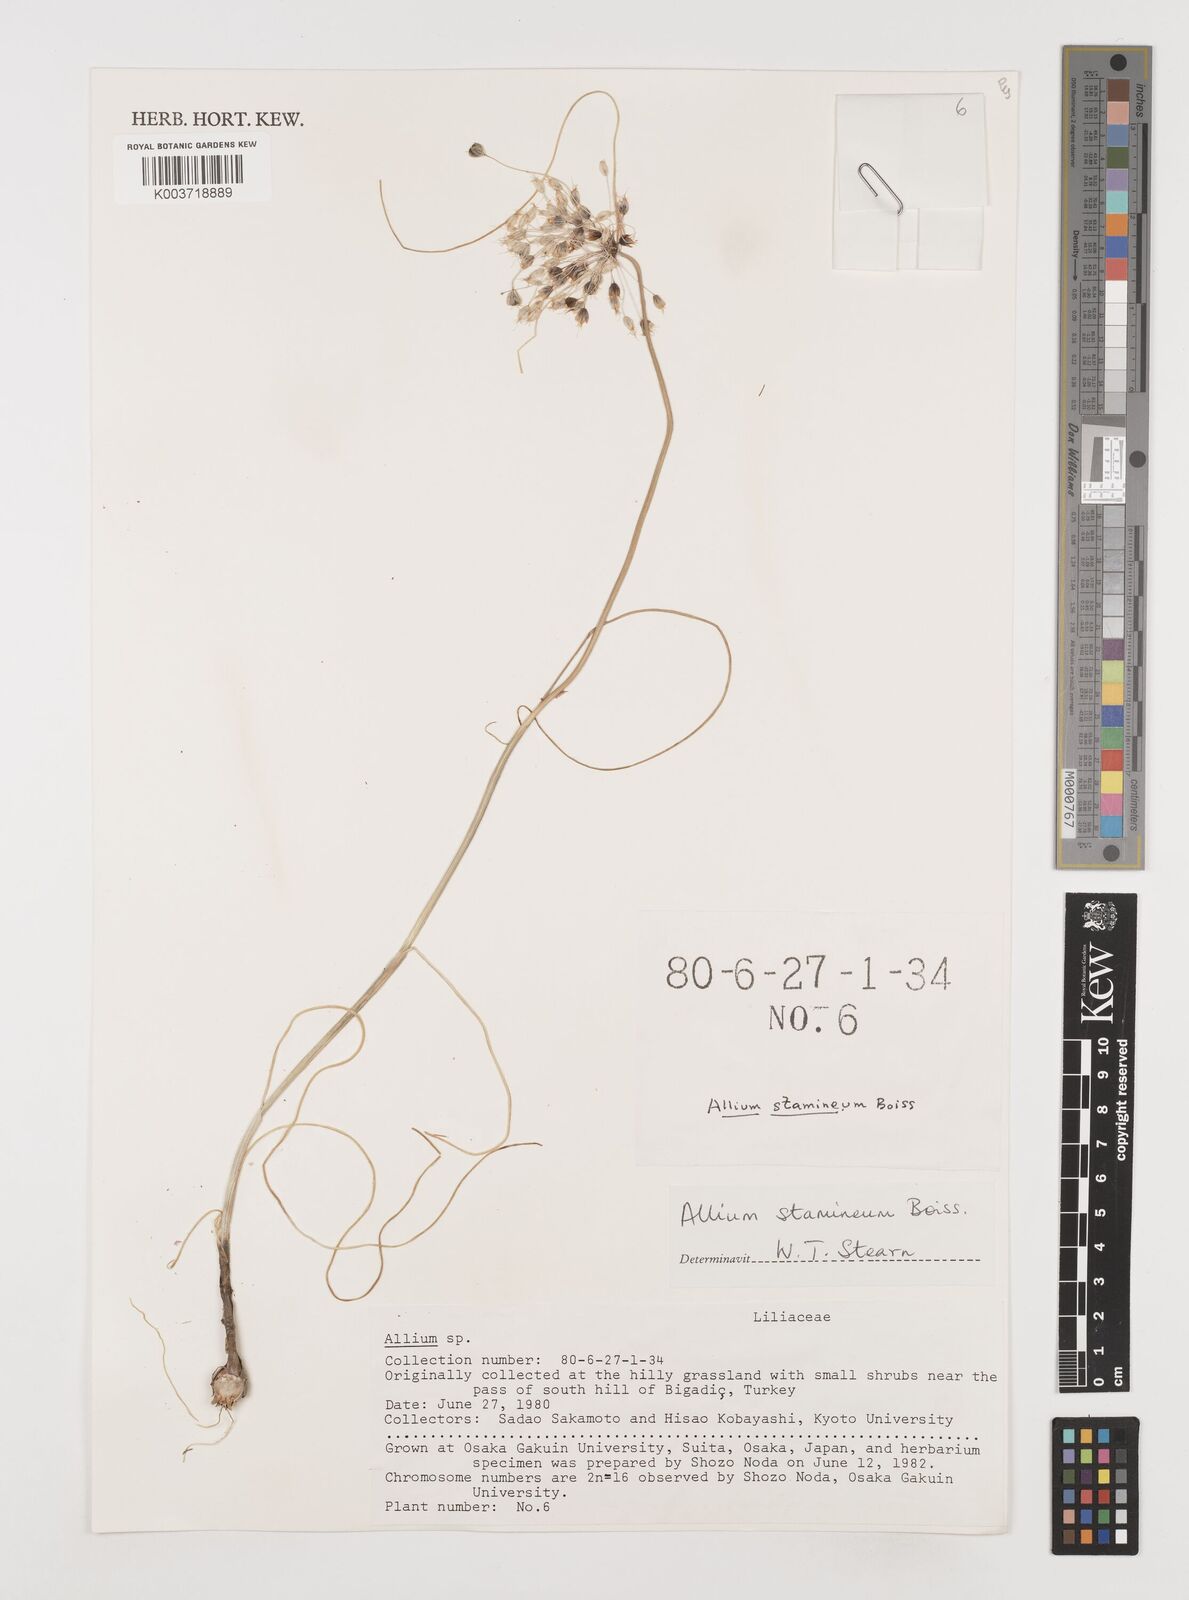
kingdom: Plantae
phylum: Tracheophyta
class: Liliopsida
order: Asparagales
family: Amaryllidaceae
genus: Allium
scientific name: Allium stamineum
